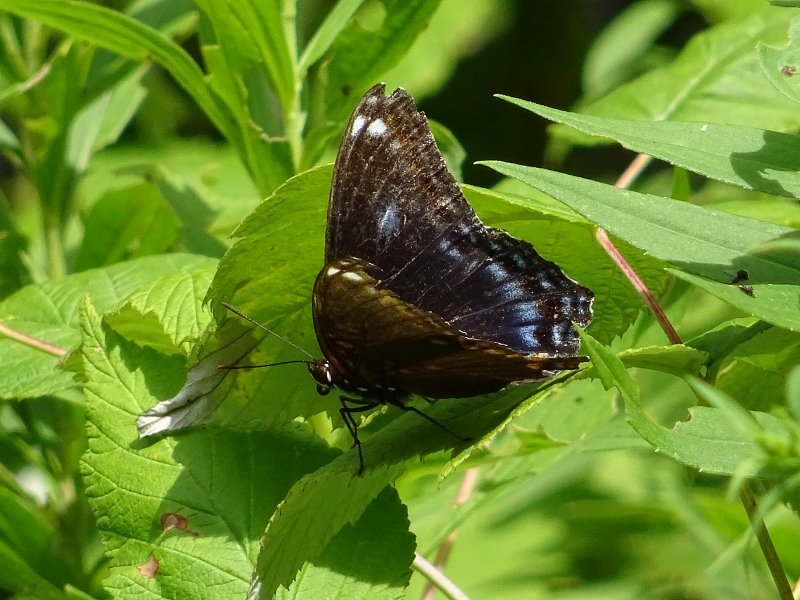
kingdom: Animalia
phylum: Arthropoda
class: Insecta
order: Lepidoptera
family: Nymphalidae
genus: Limenitis
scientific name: Limenitis astyanax
